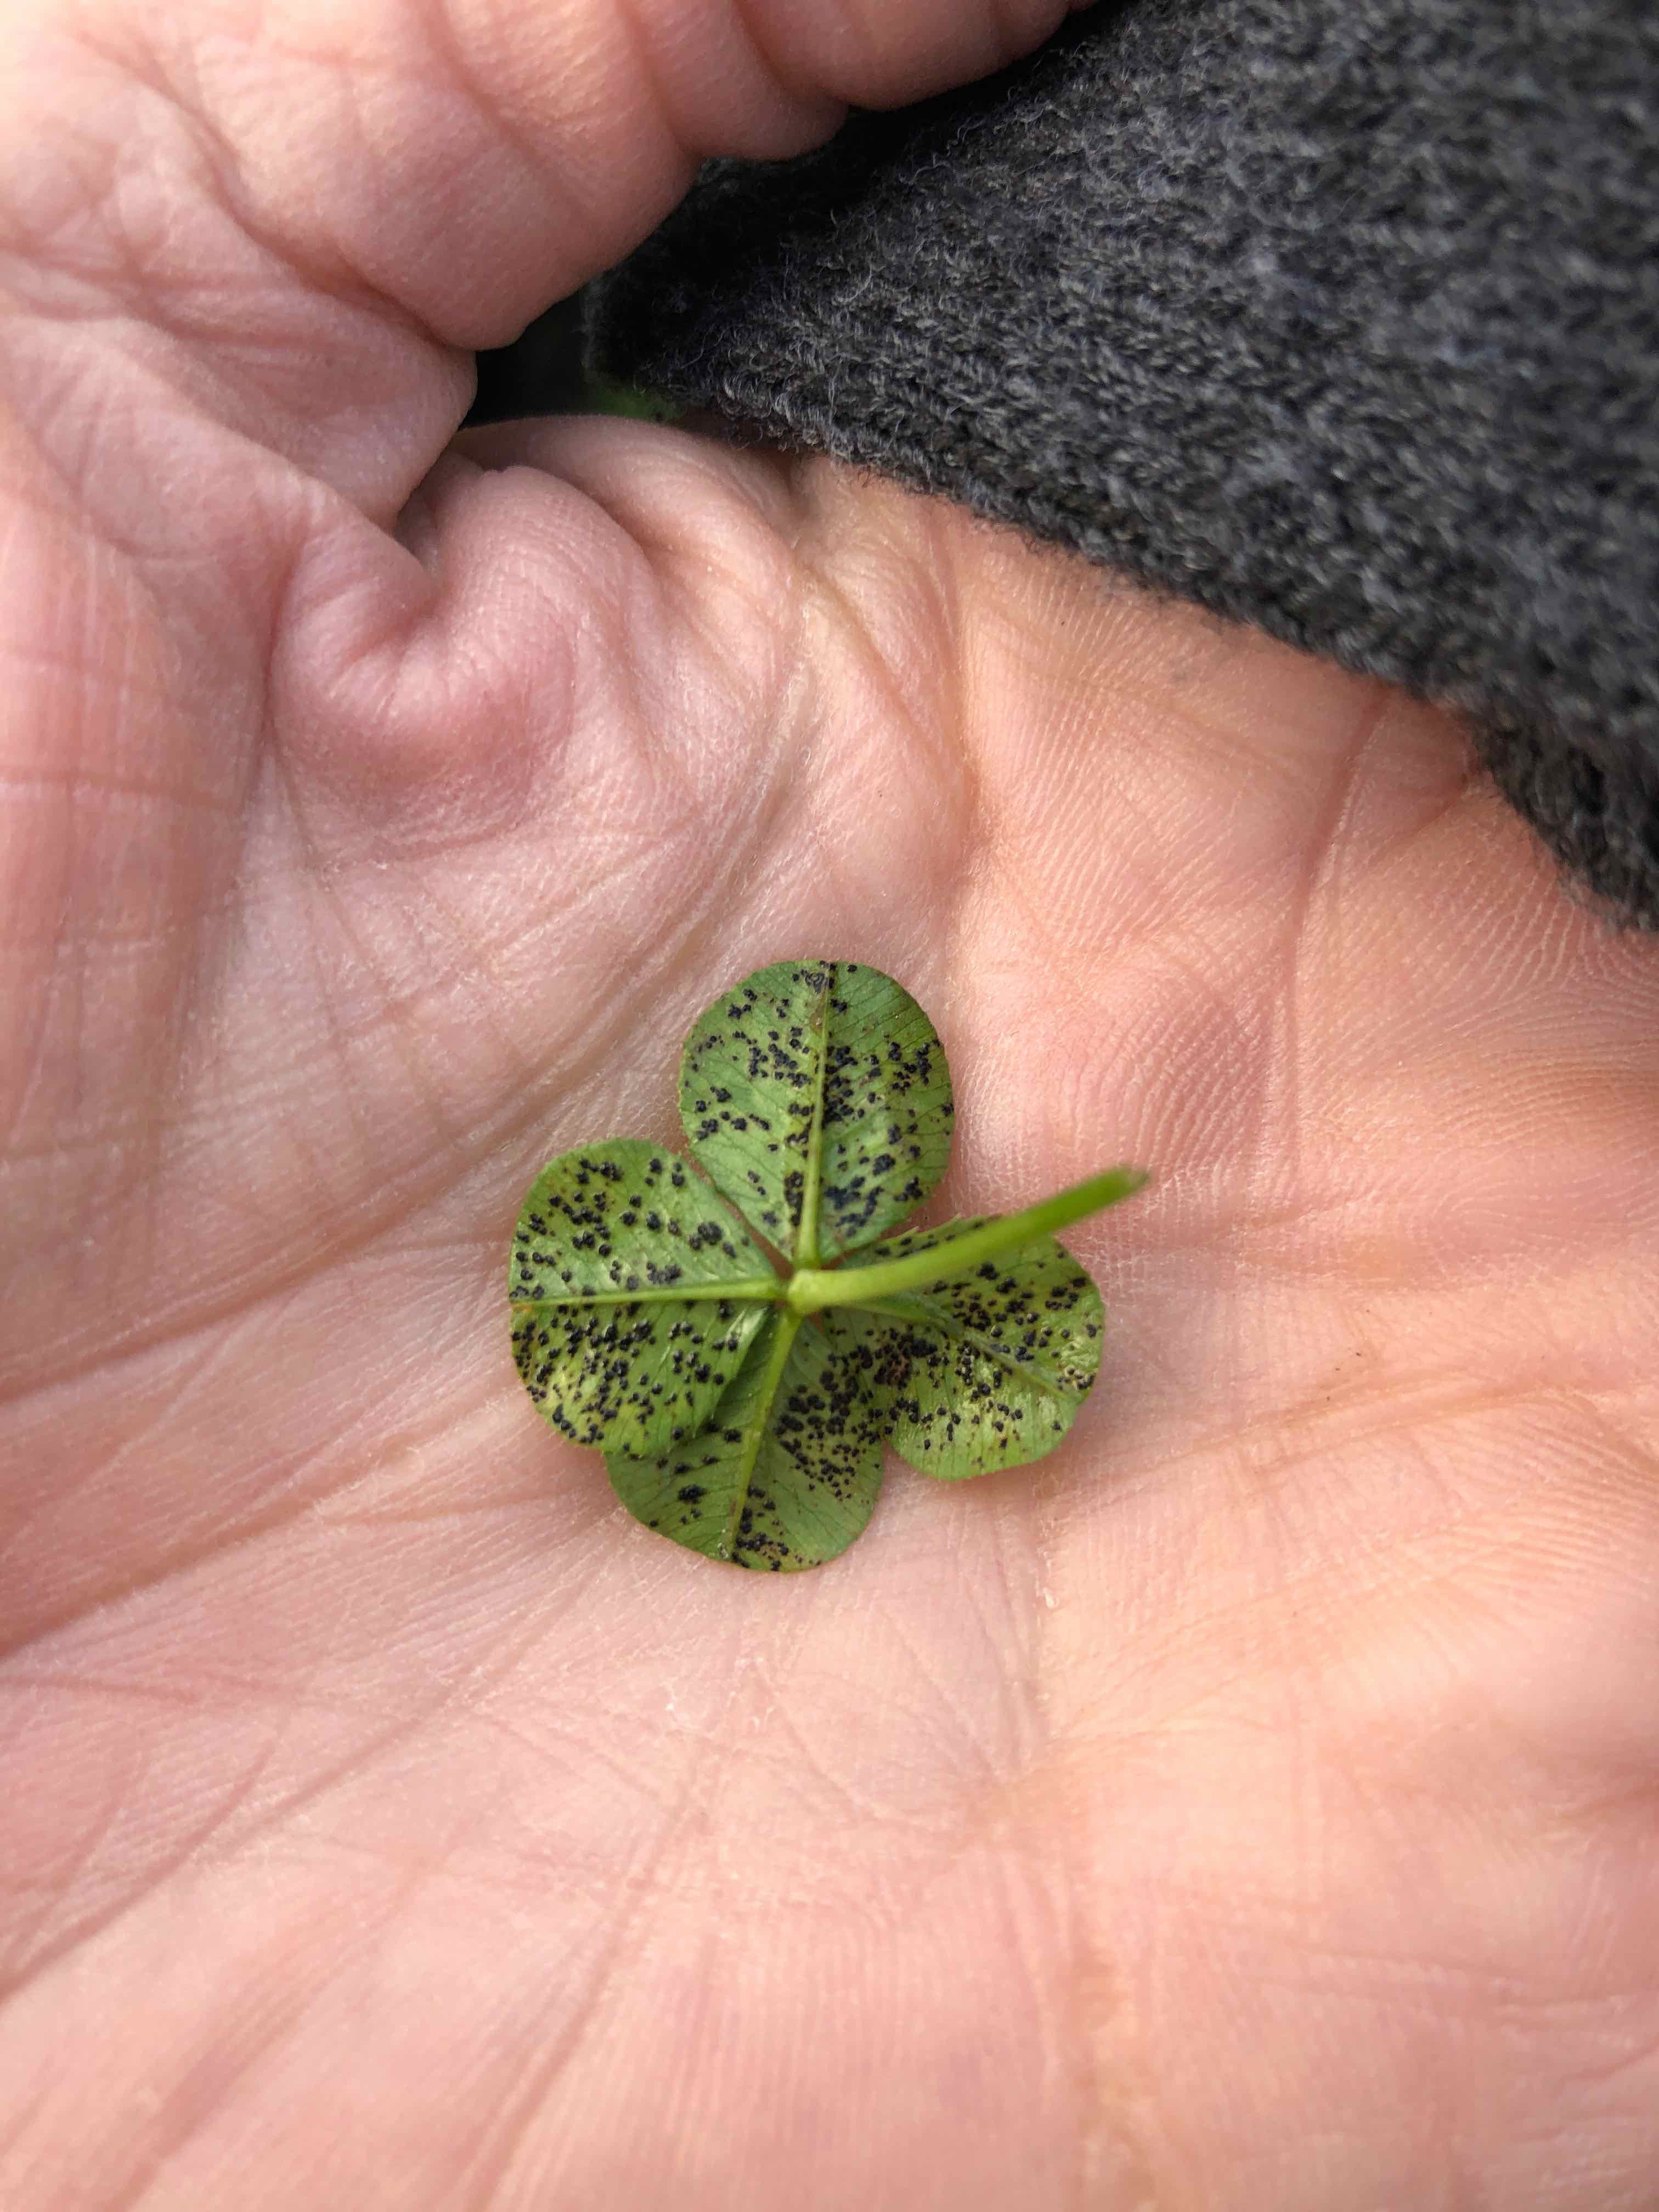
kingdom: Fungi
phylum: Ascomycota
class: Dothideomycetes
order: Mycosphaerellales
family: Mycosphaerellaceae
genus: Polythrincium
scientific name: Polythrincium trifolii
